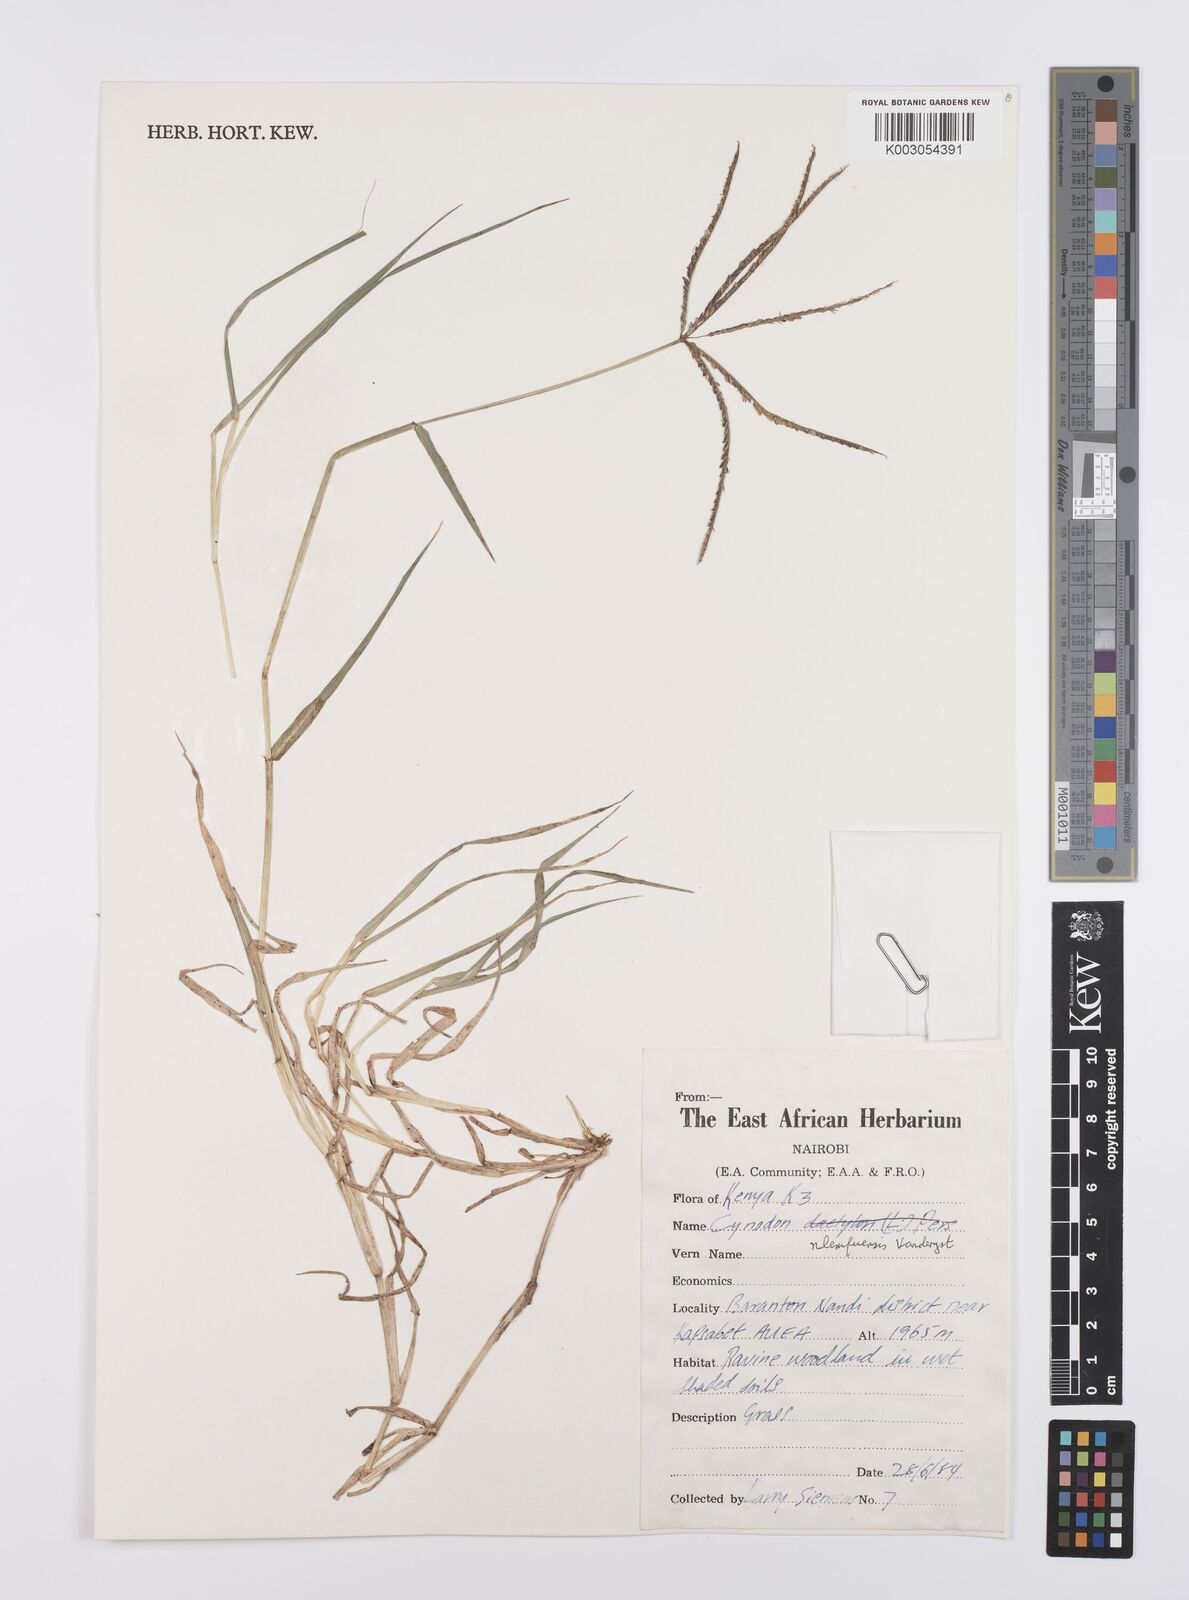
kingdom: Plantae
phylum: Tracheophyta
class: Liliopsida
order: Poales
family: Poaceae
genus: Cynodon
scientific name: Cynodon nlemfuensis
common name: African bermudagrass
